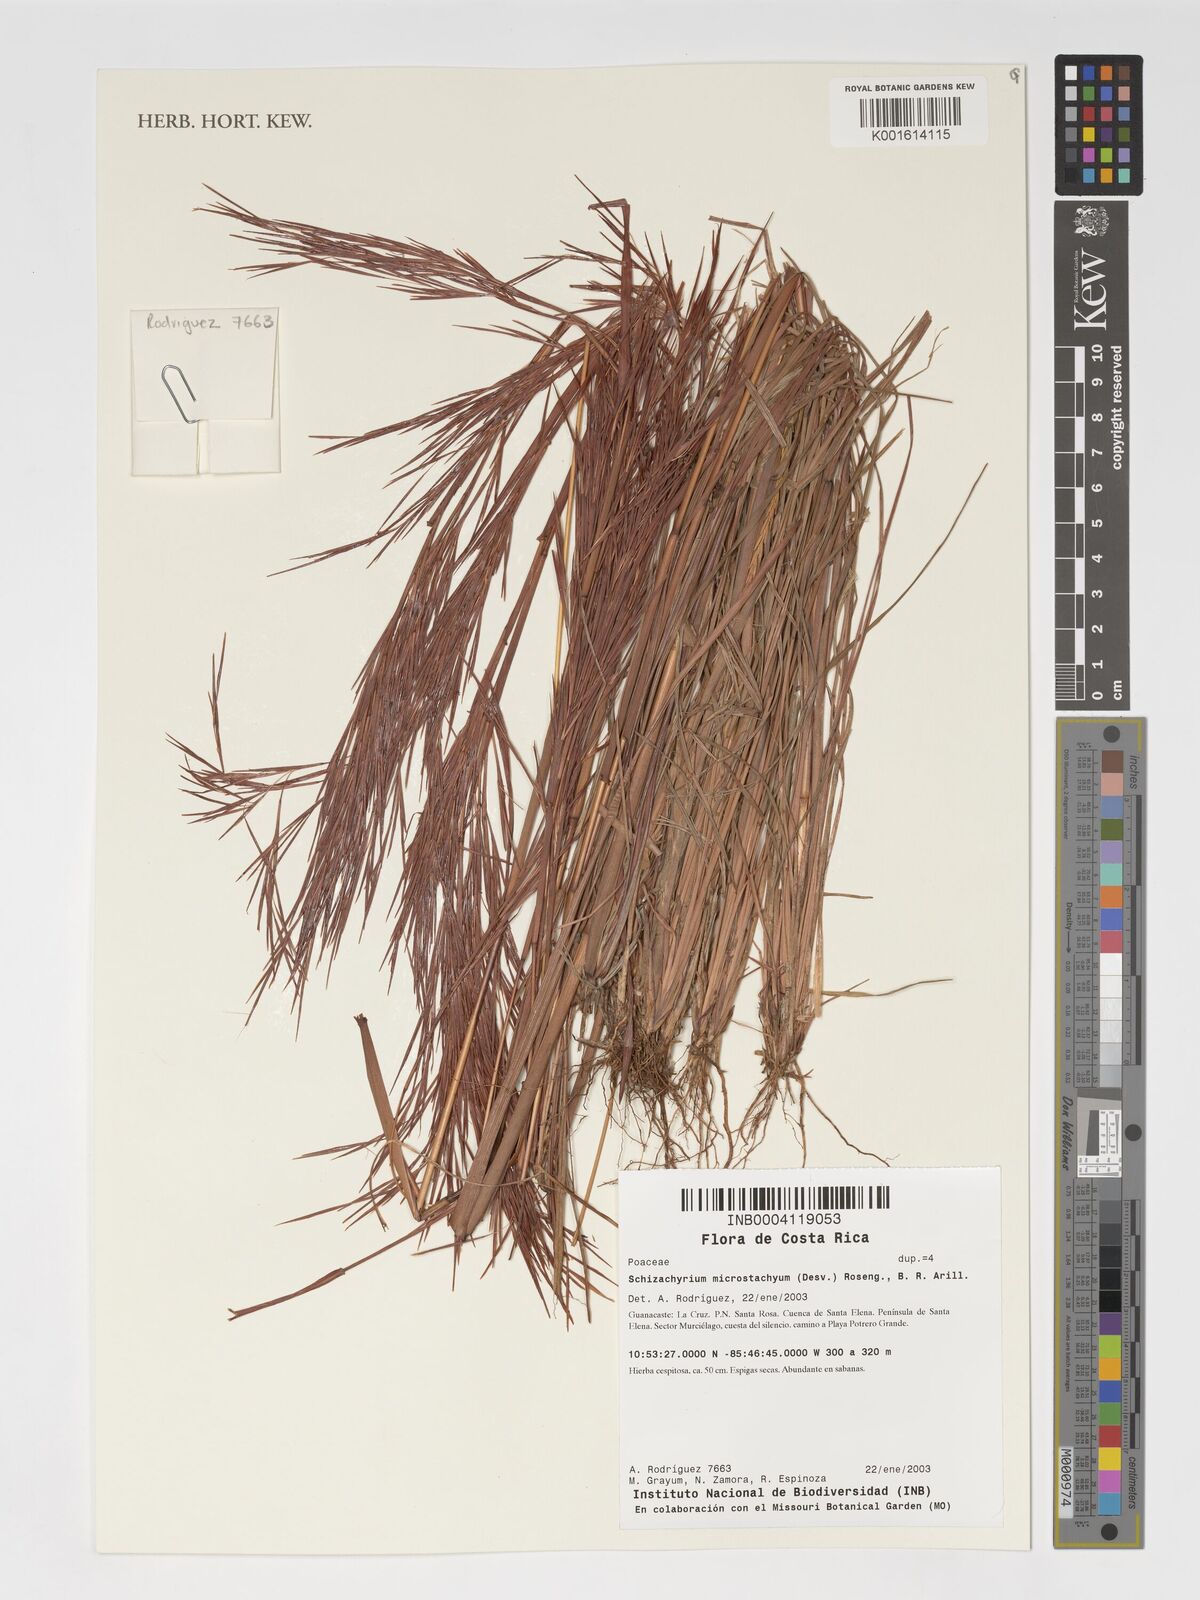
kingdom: Plantae
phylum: Tracheophyta
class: Liliopsida
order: Poales
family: Poaceae
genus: Schizachyrium
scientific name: Schizachyrium microstachyum
